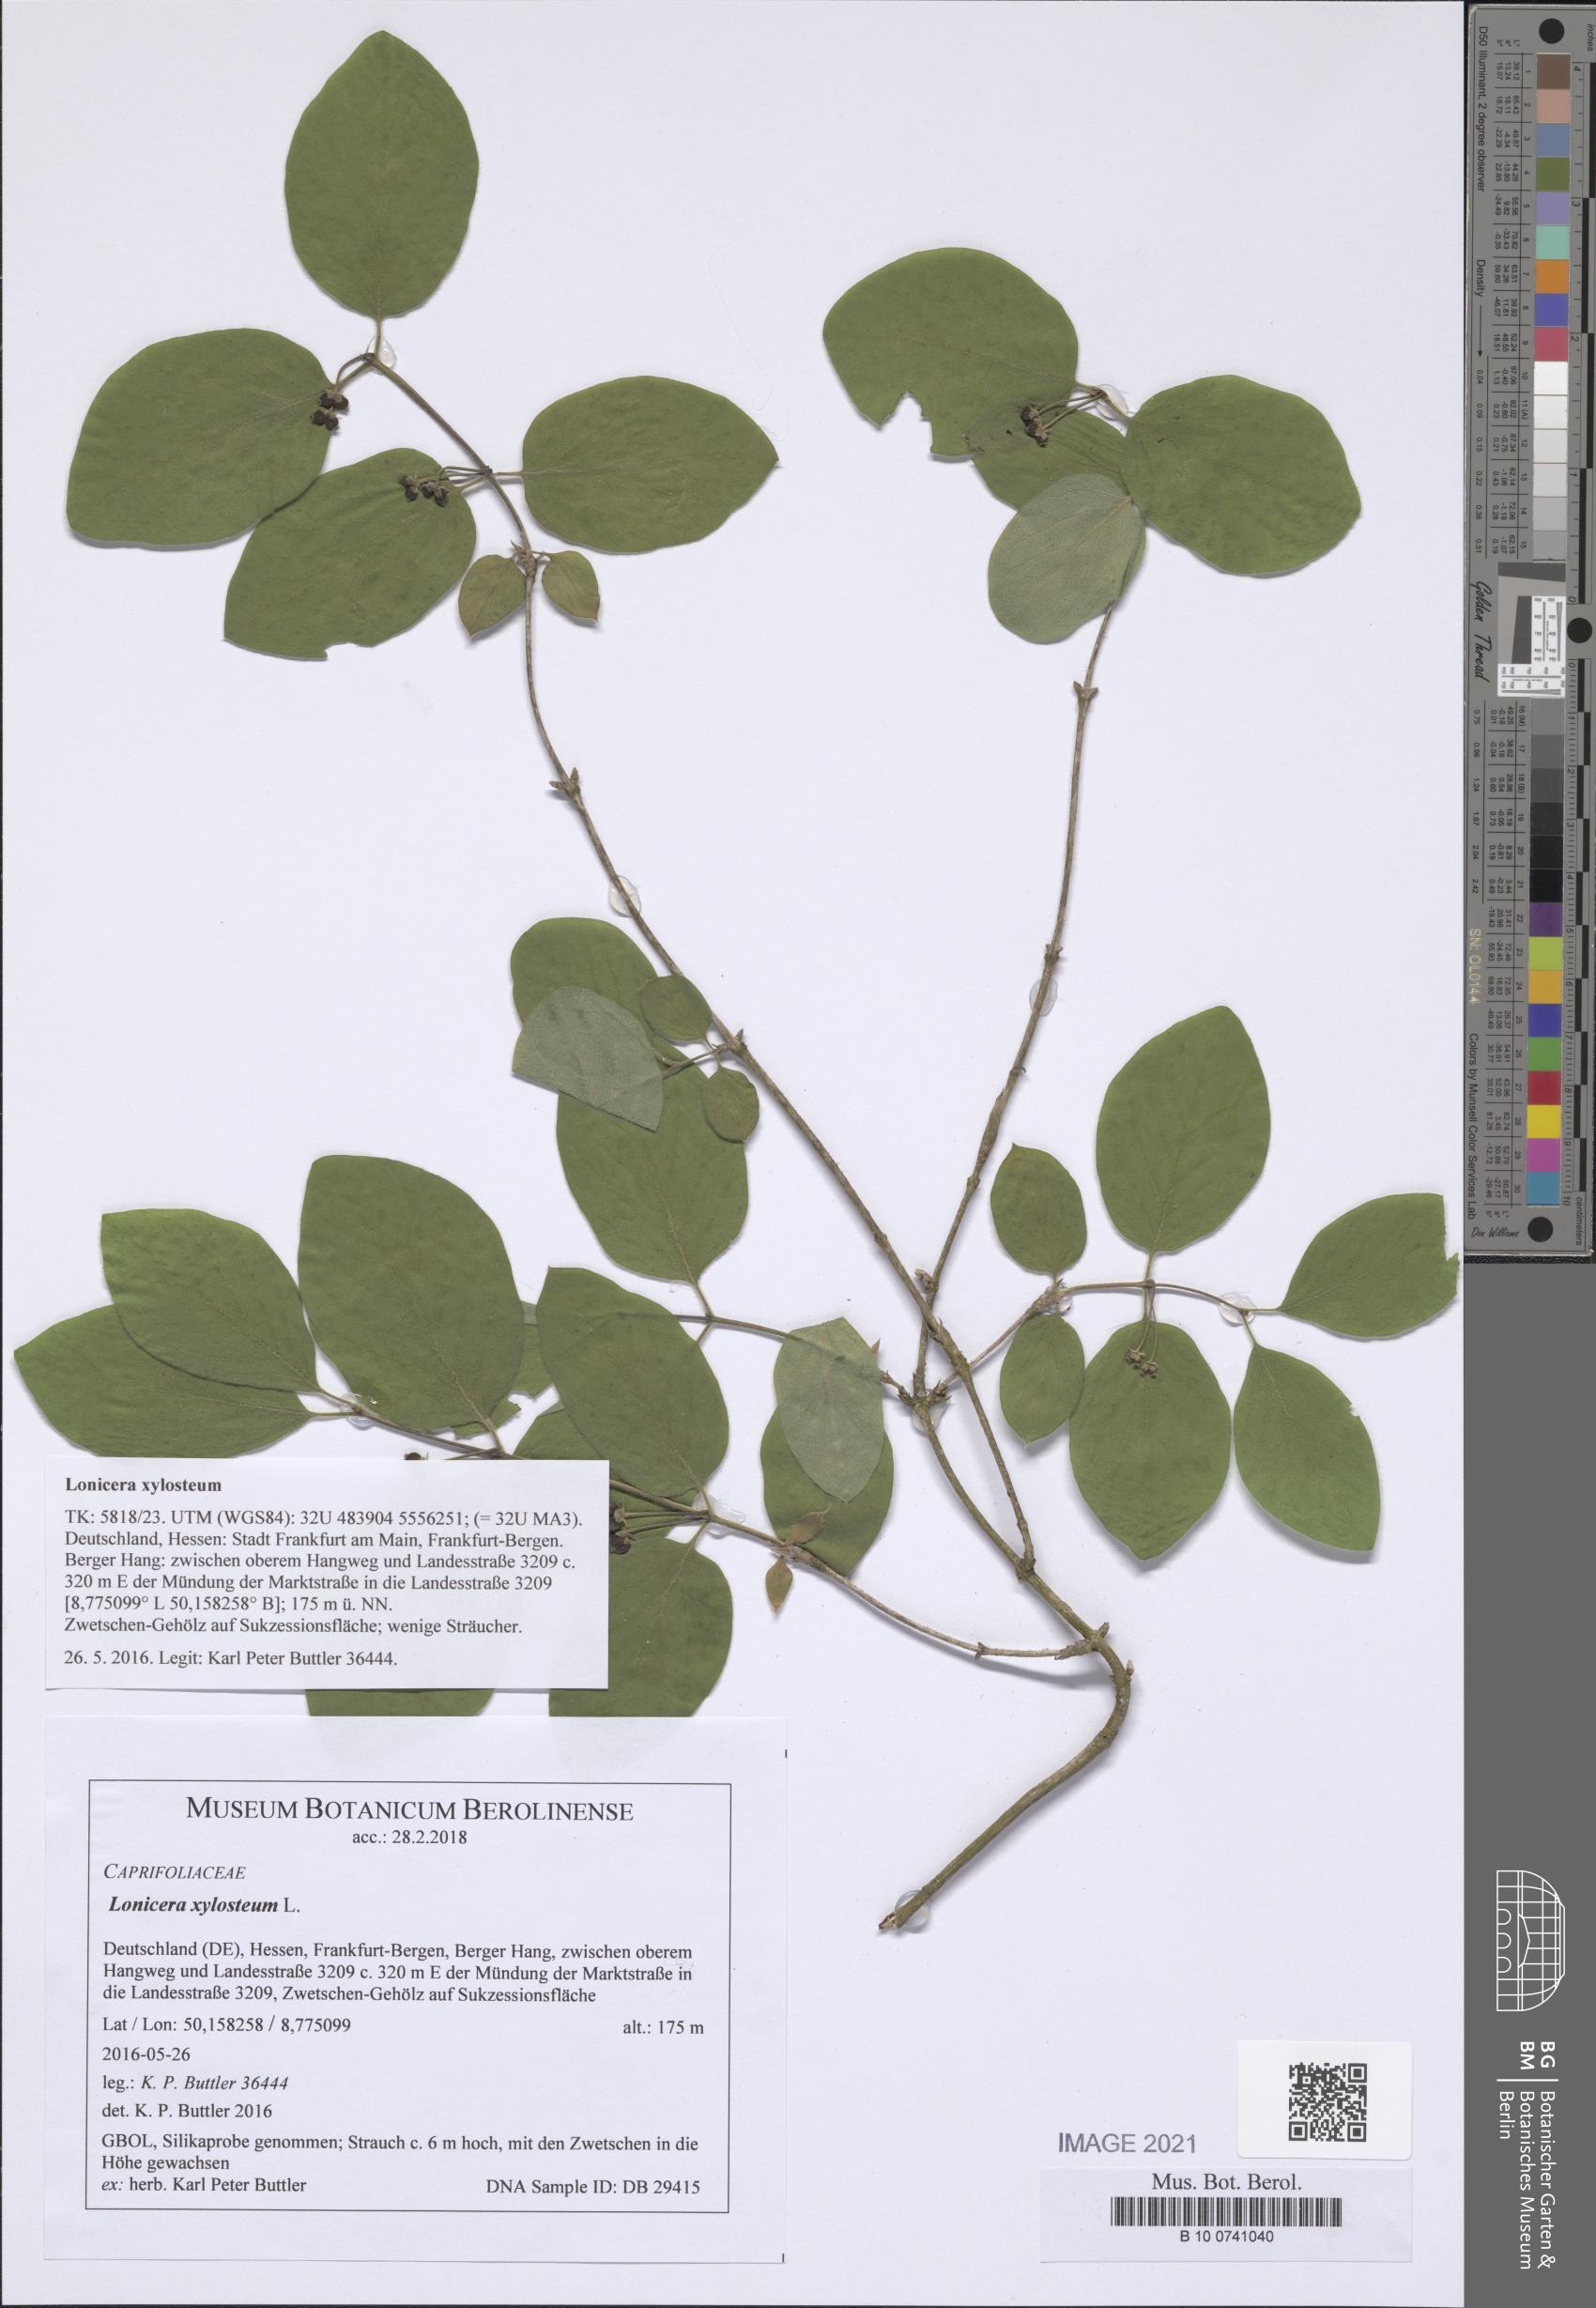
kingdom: Plantae
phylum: Tracheophyta
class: Magnoliopsida
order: Dipsacales
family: Caprifoliaceae
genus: Lonicera
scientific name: Lonicera xylosteum
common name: Fly honeysuckle
